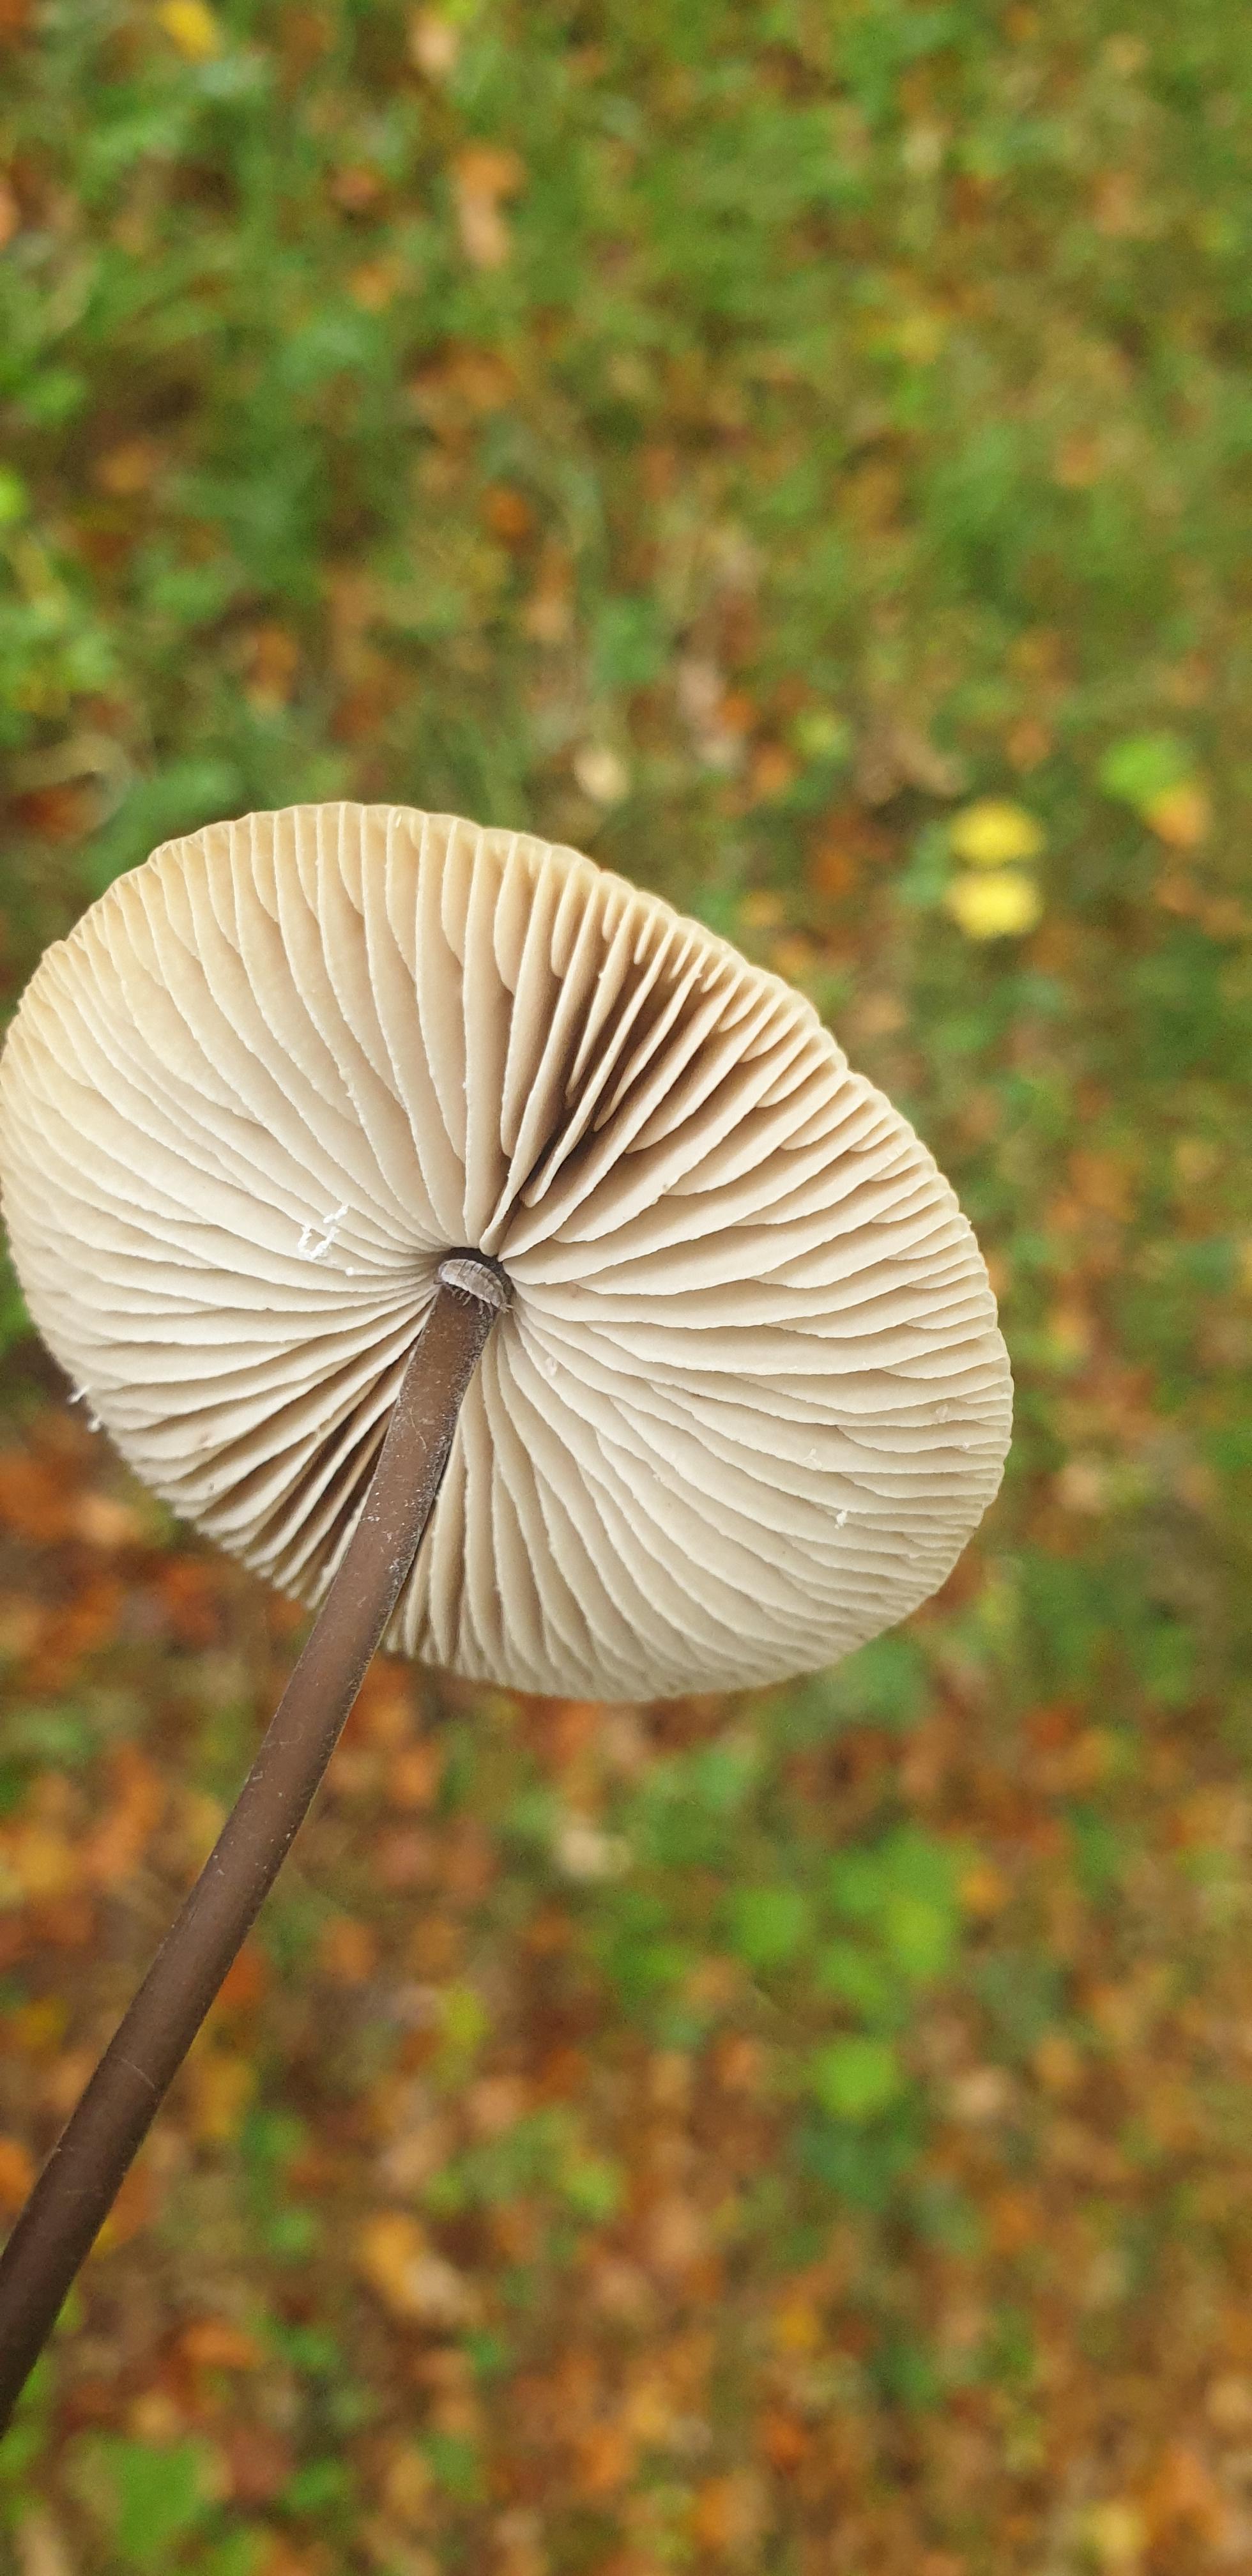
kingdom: Fungi
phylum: Basidiomycota
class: Agaricomycetes
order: Agaricales
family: Omphalotaceae
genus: Mycetinis
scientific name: Mycetinis alliaceus
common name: stor løghat
